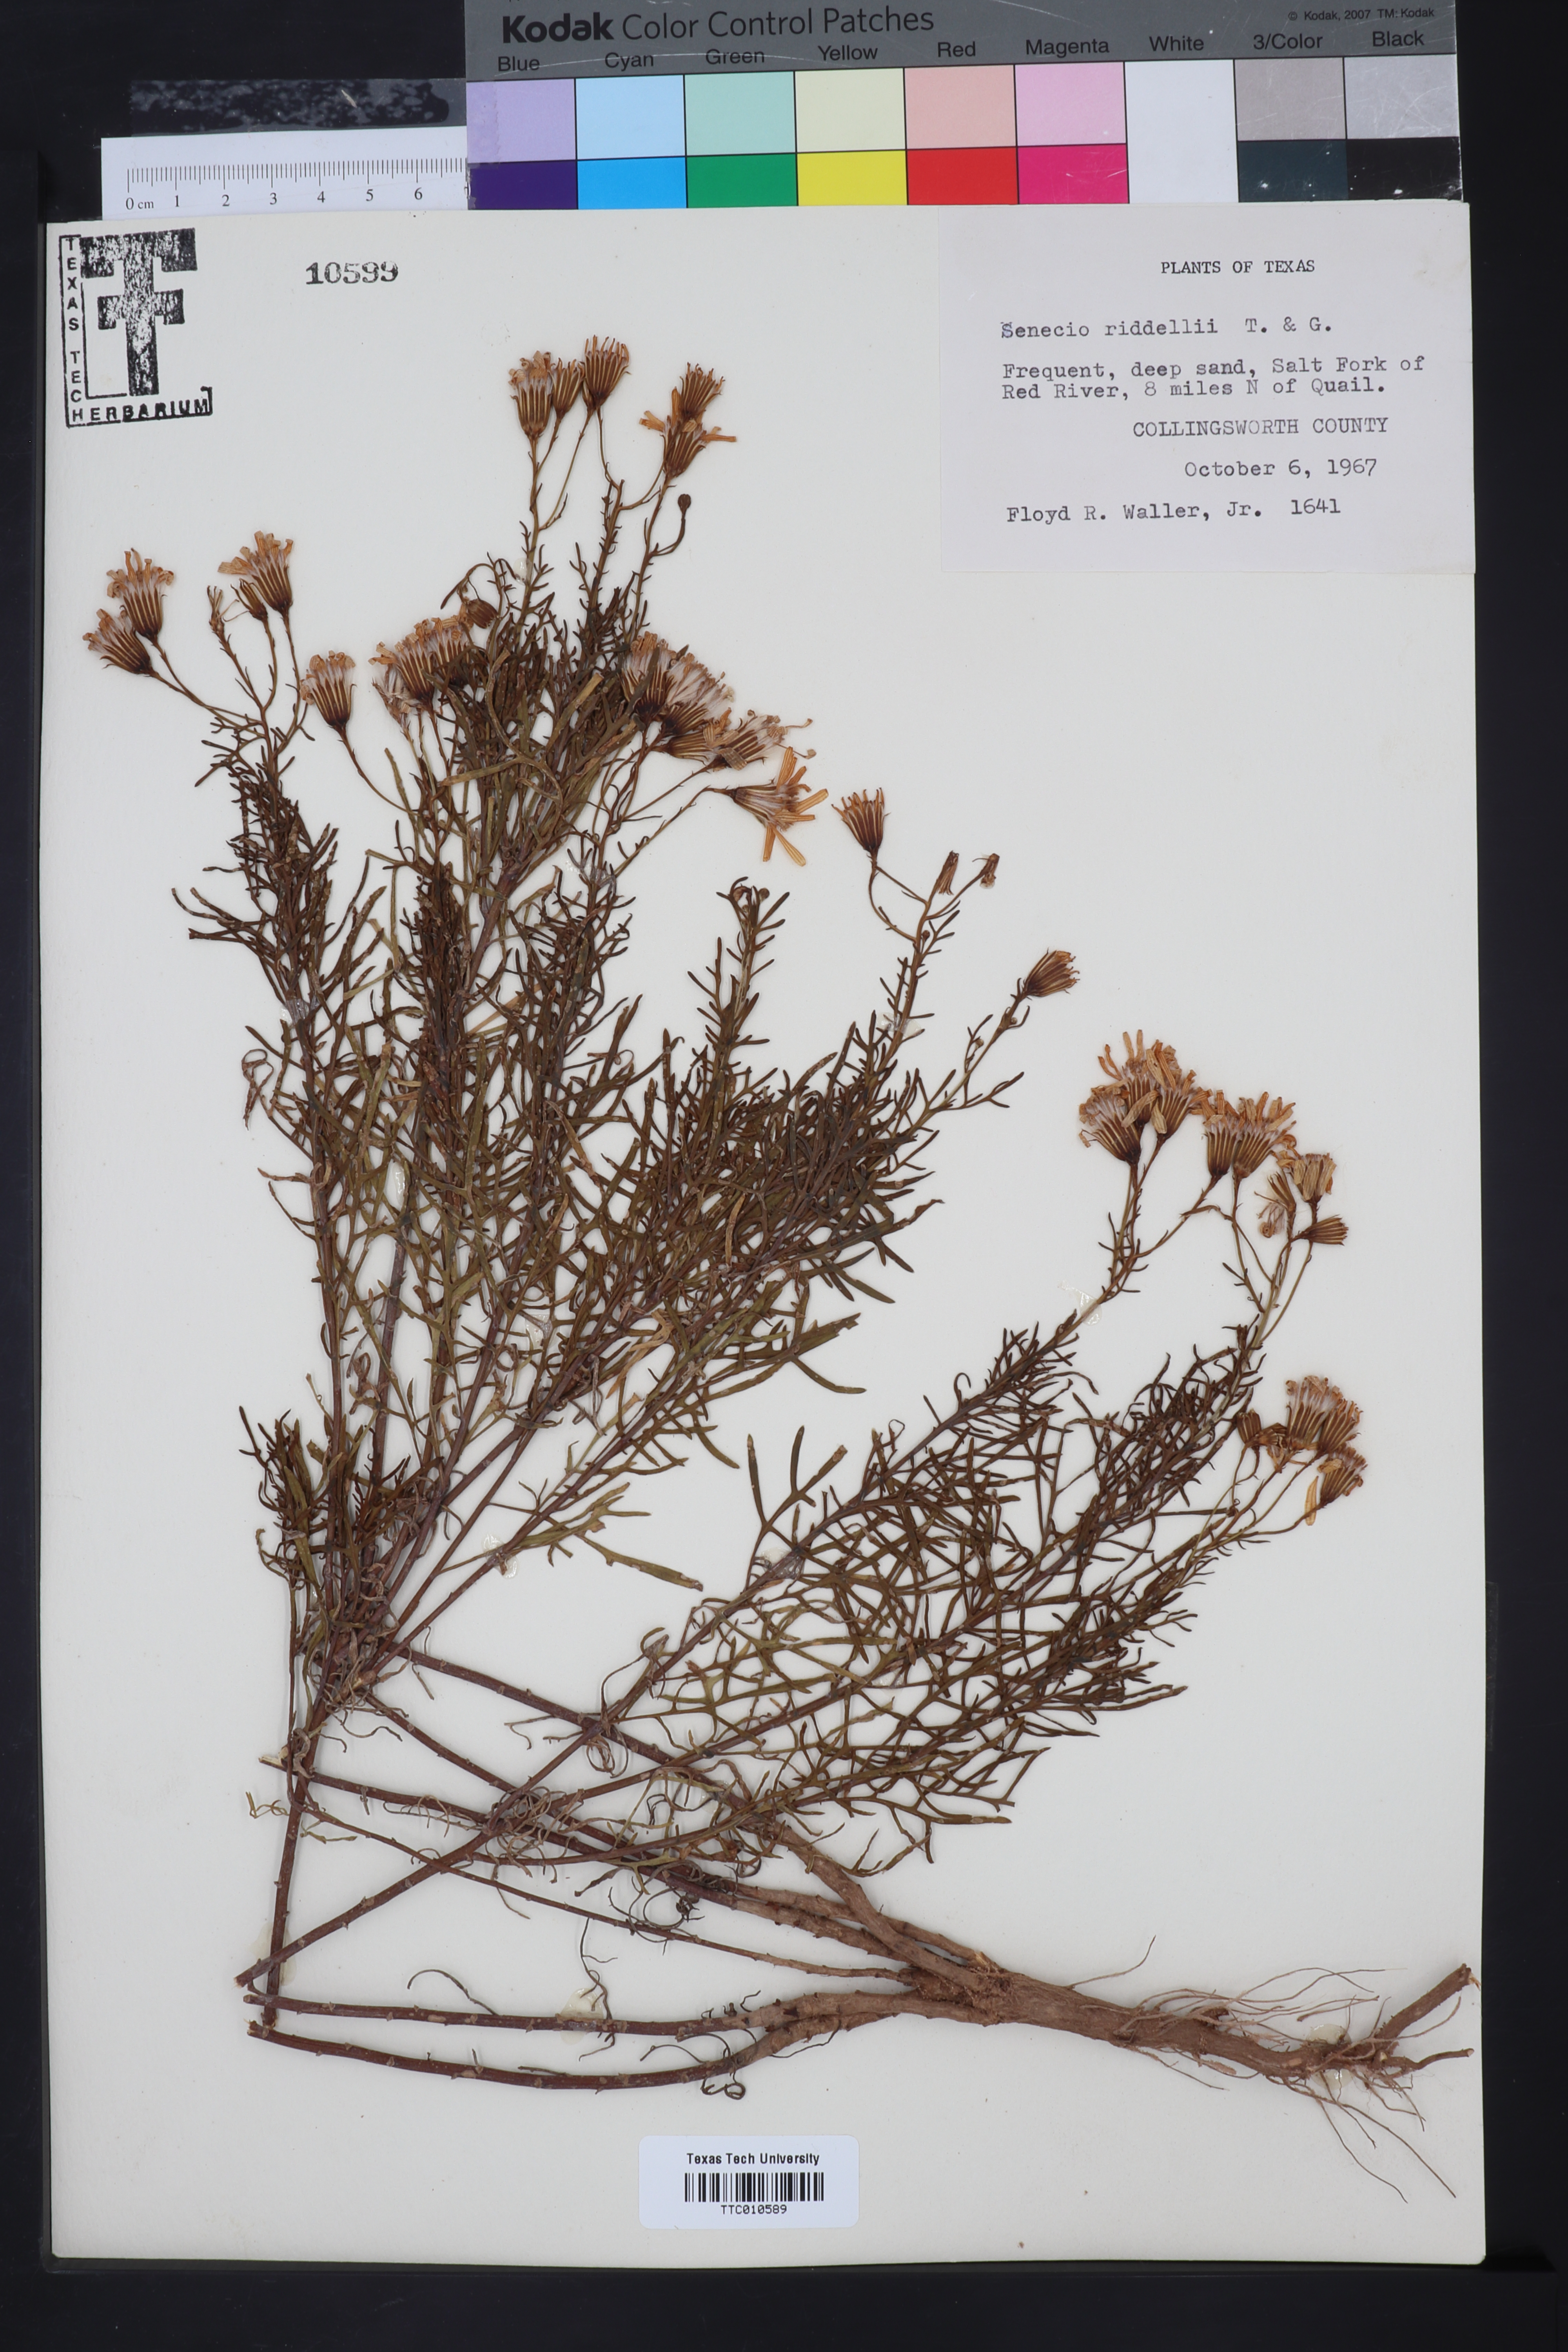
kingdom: Plantae
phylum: Tracheophyta
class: Magnoliopsida
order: Asterales
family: Asteraceae
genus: Senecio
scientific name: Senecio riddellii
